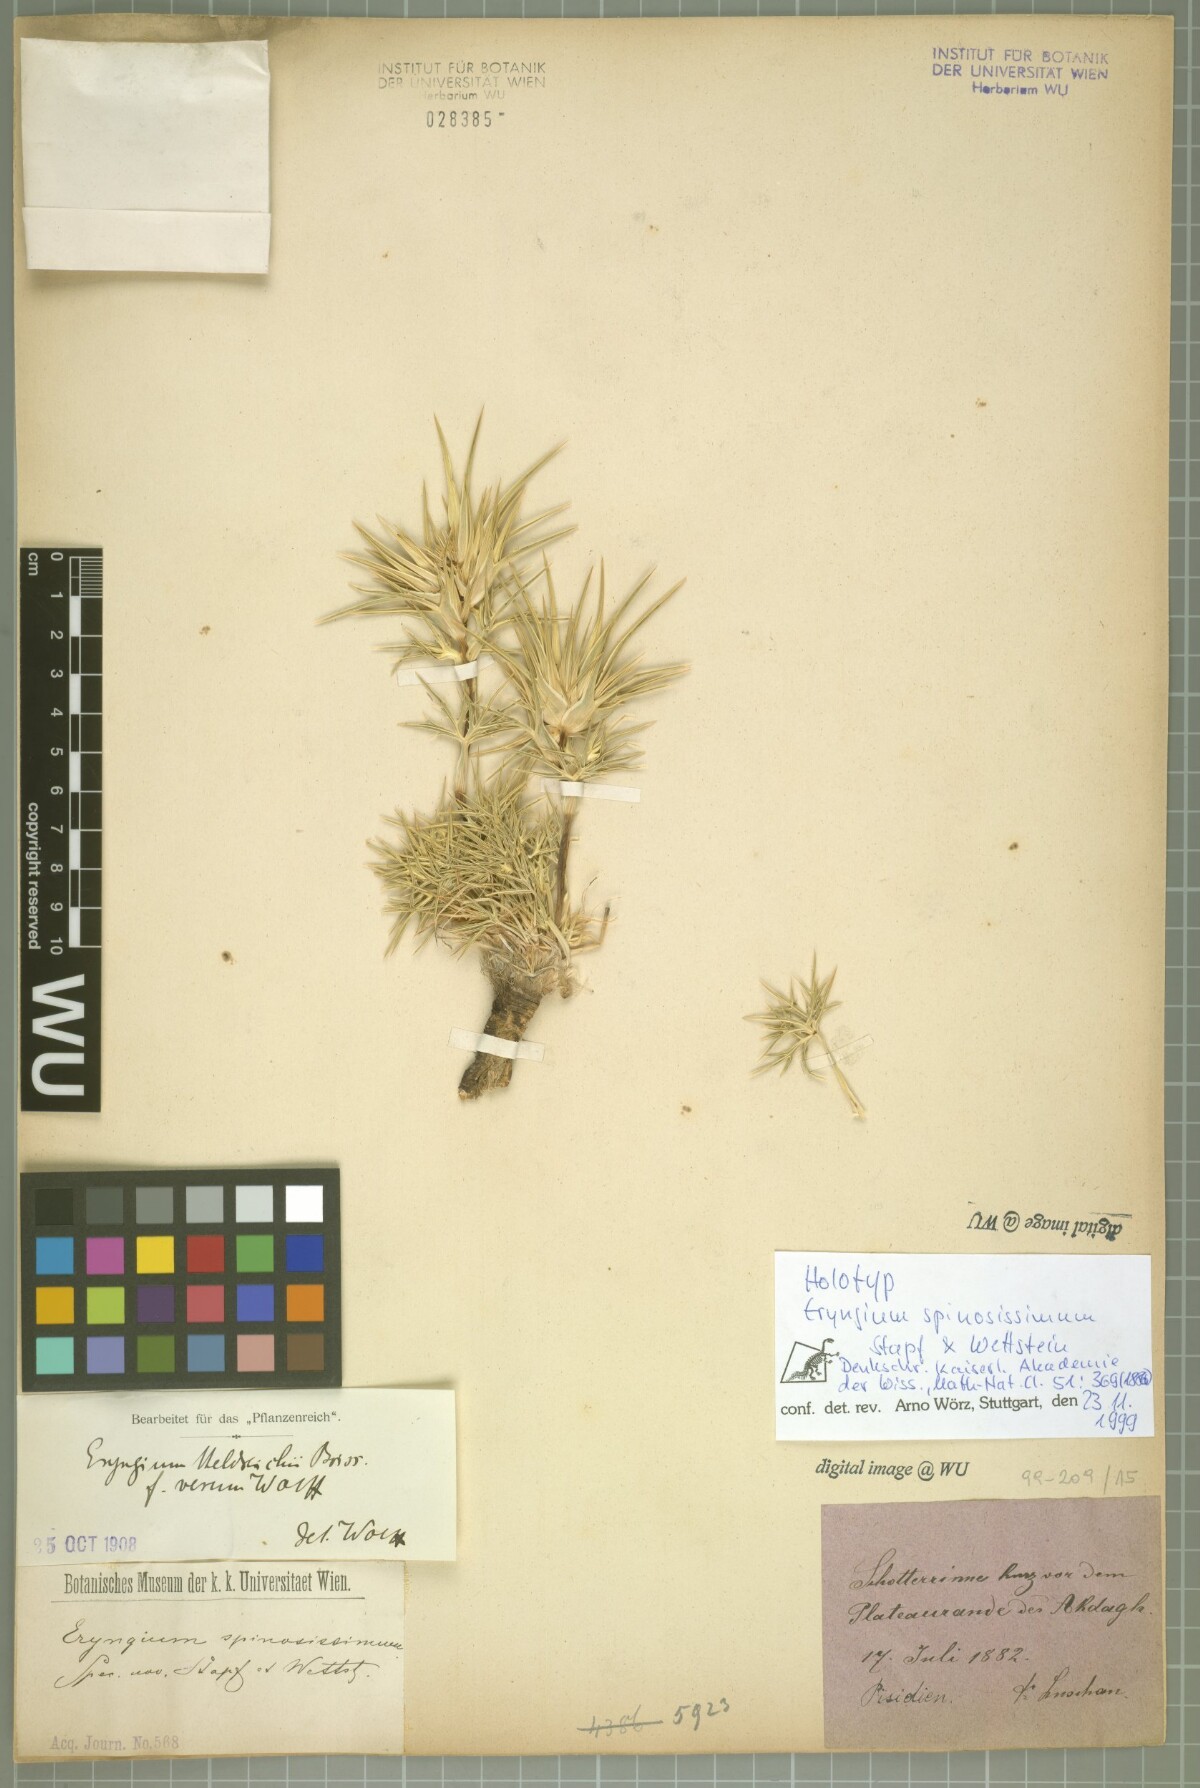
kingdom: Plantae
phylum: Tracheophyta
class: Magnoliopsida
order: Apiales
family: Apiaceae
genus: Eryngium
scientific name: Eryngium heldreichii
